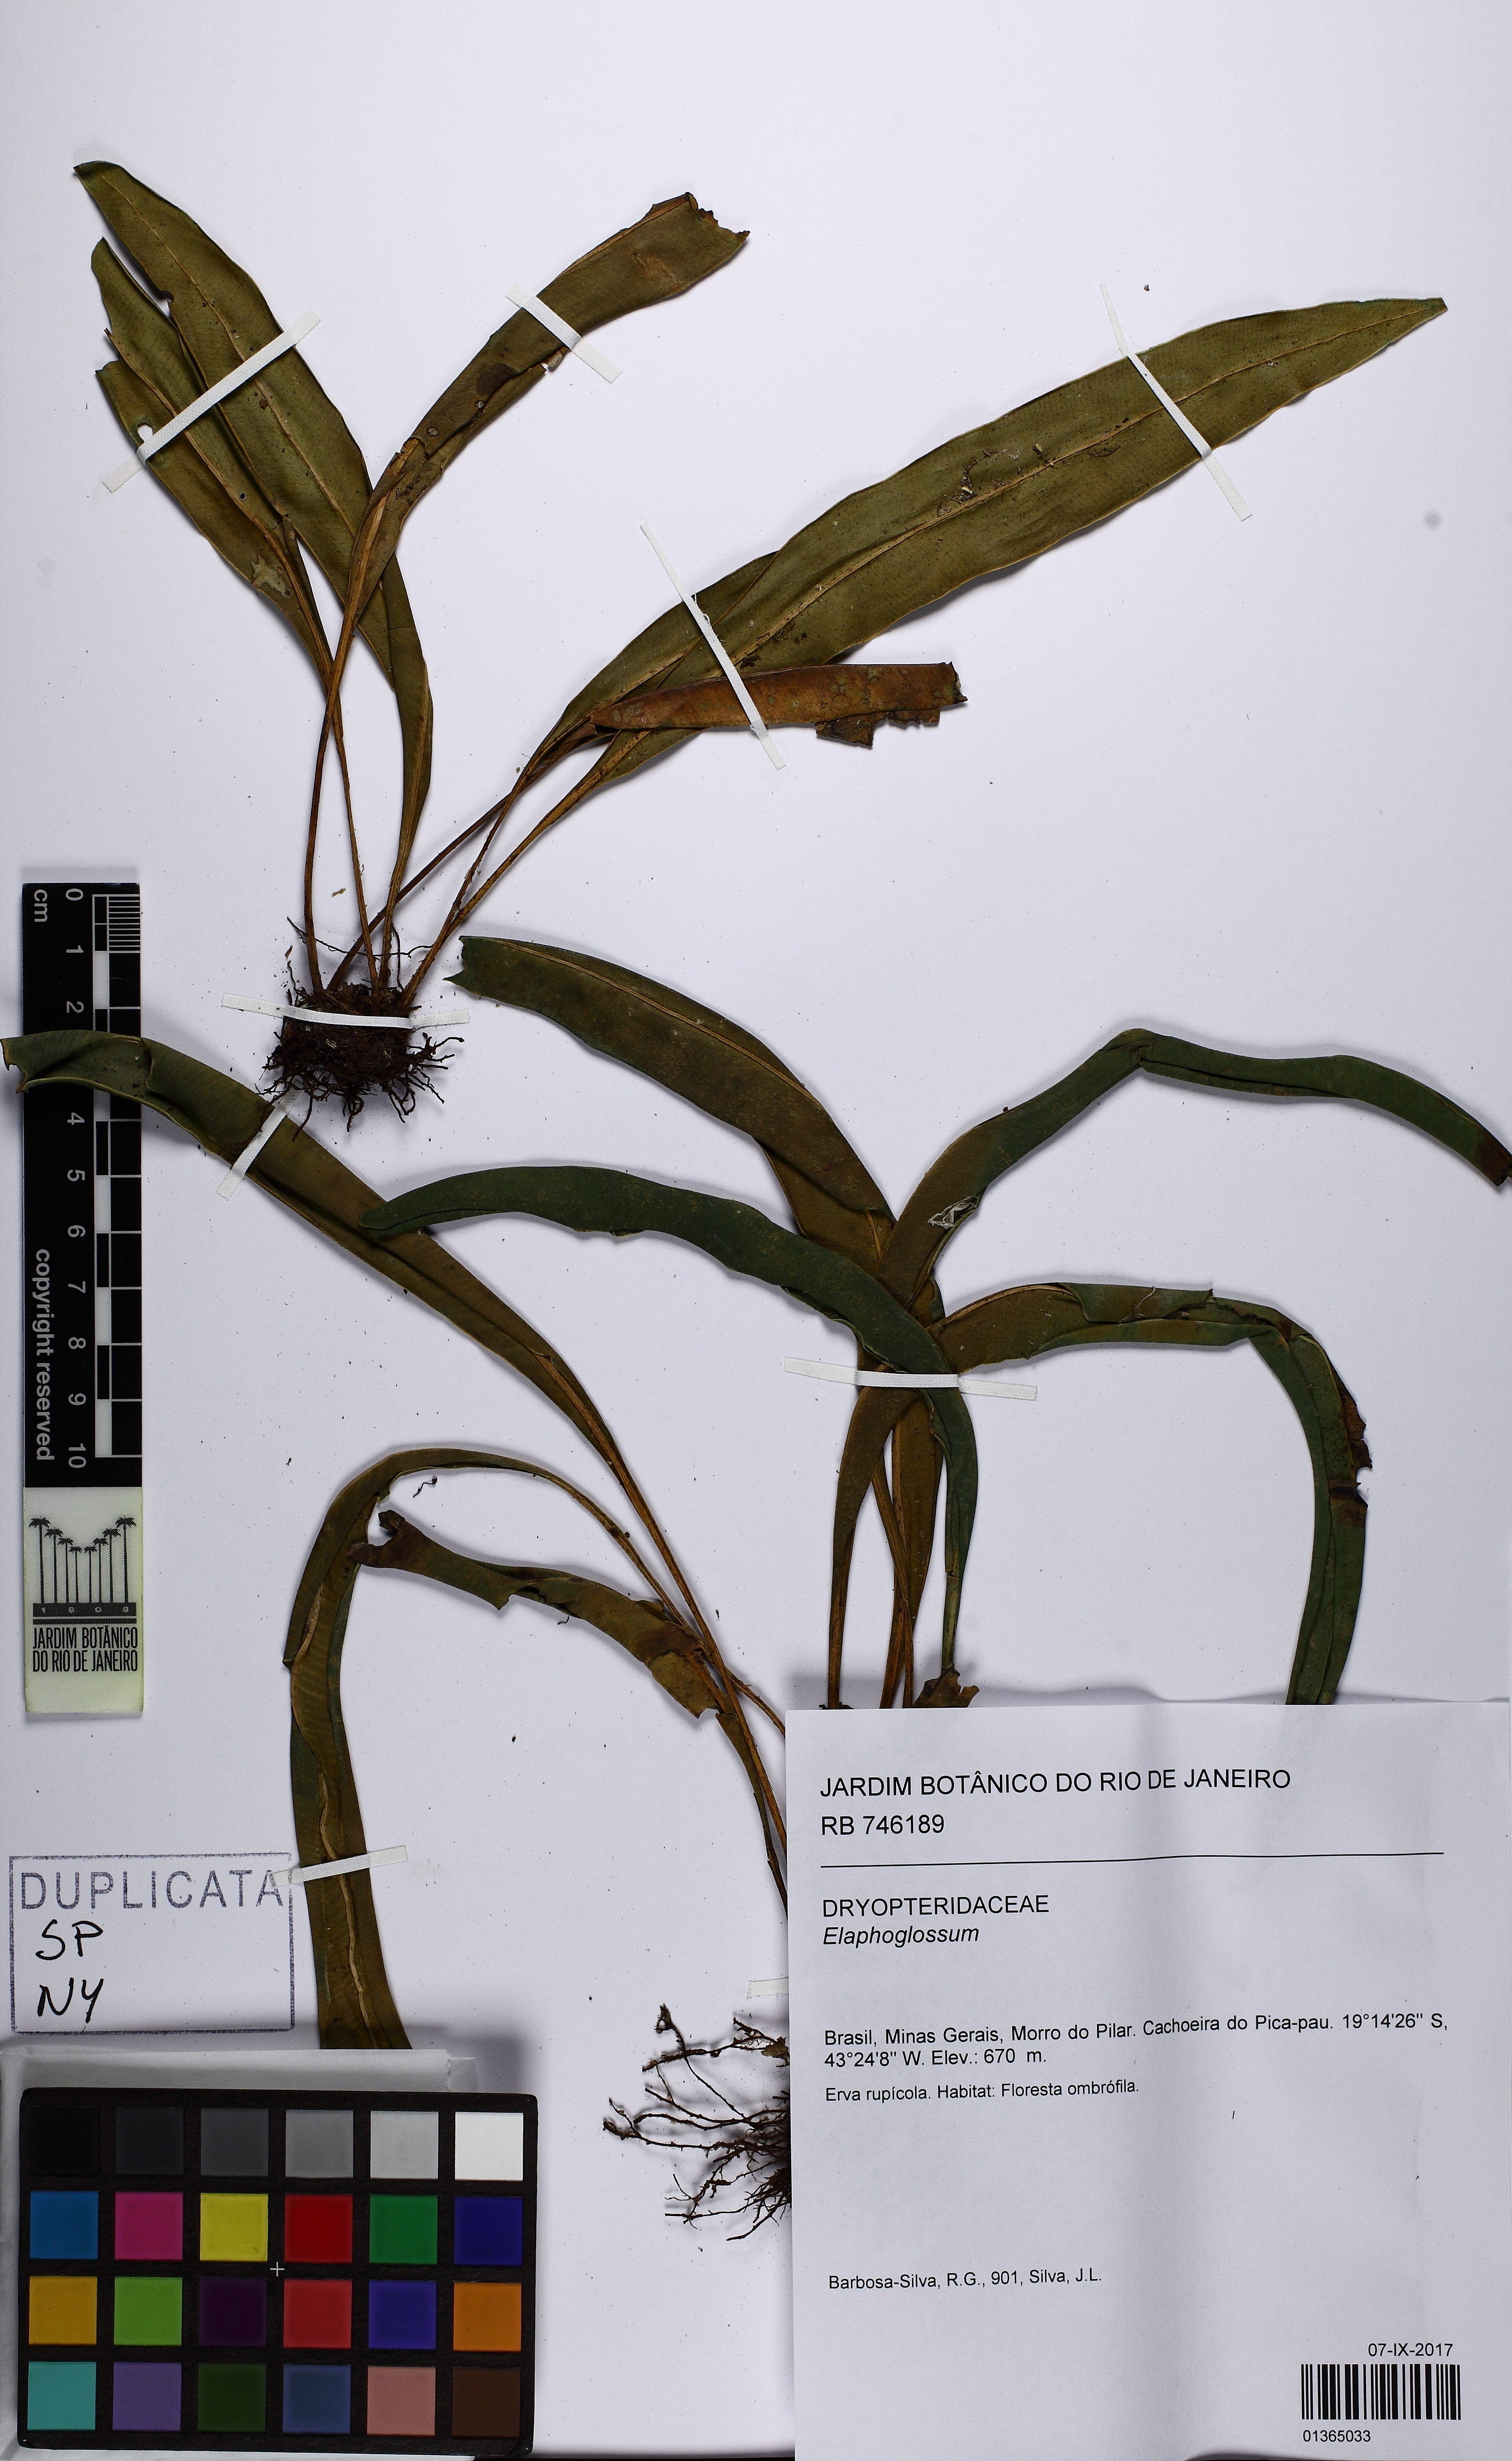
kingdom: Plantae
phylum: Tracheophyta
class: Polypodiopsida
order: Polypodiales
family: Dryopteridaceae
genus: Elaphoglossum
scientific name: Elaphoglossum
